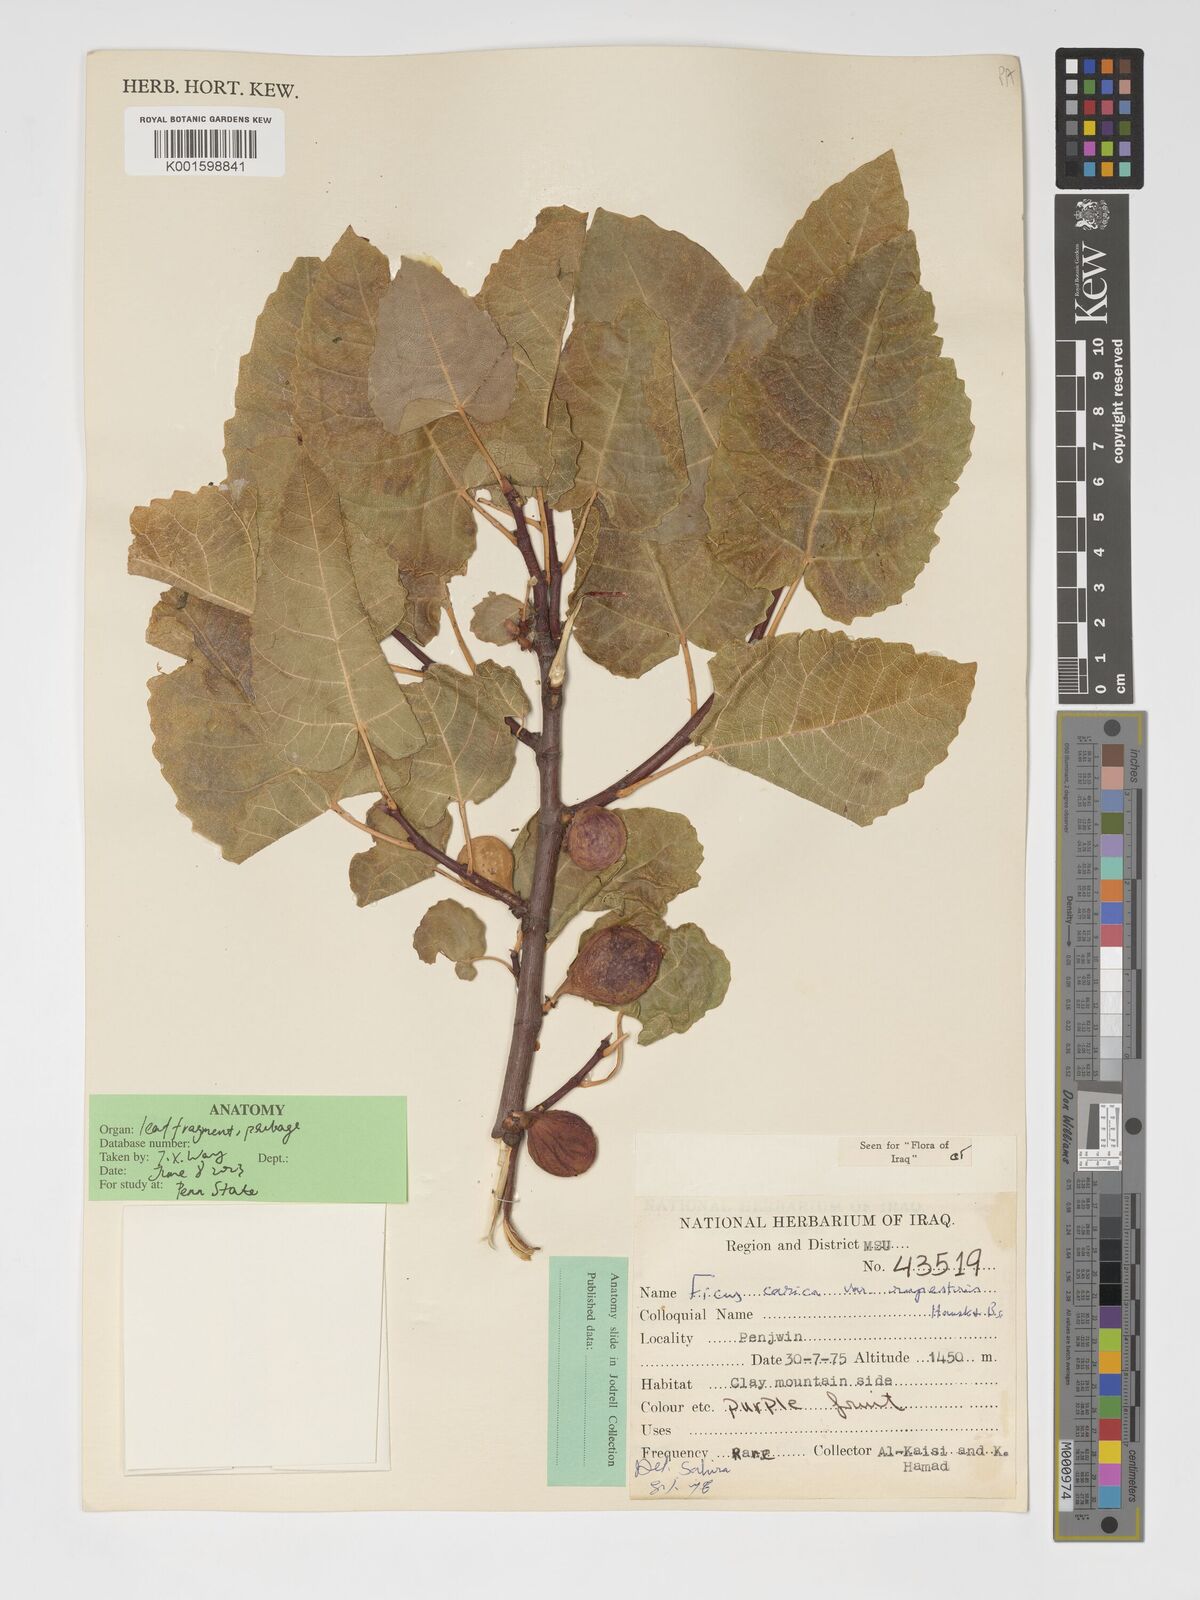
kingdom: Plantae
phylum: Tracheophyta
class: Magnoliopsida
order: Rosales
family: Moraceae
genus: Ficus
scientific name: Ficus carica
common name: Fig
